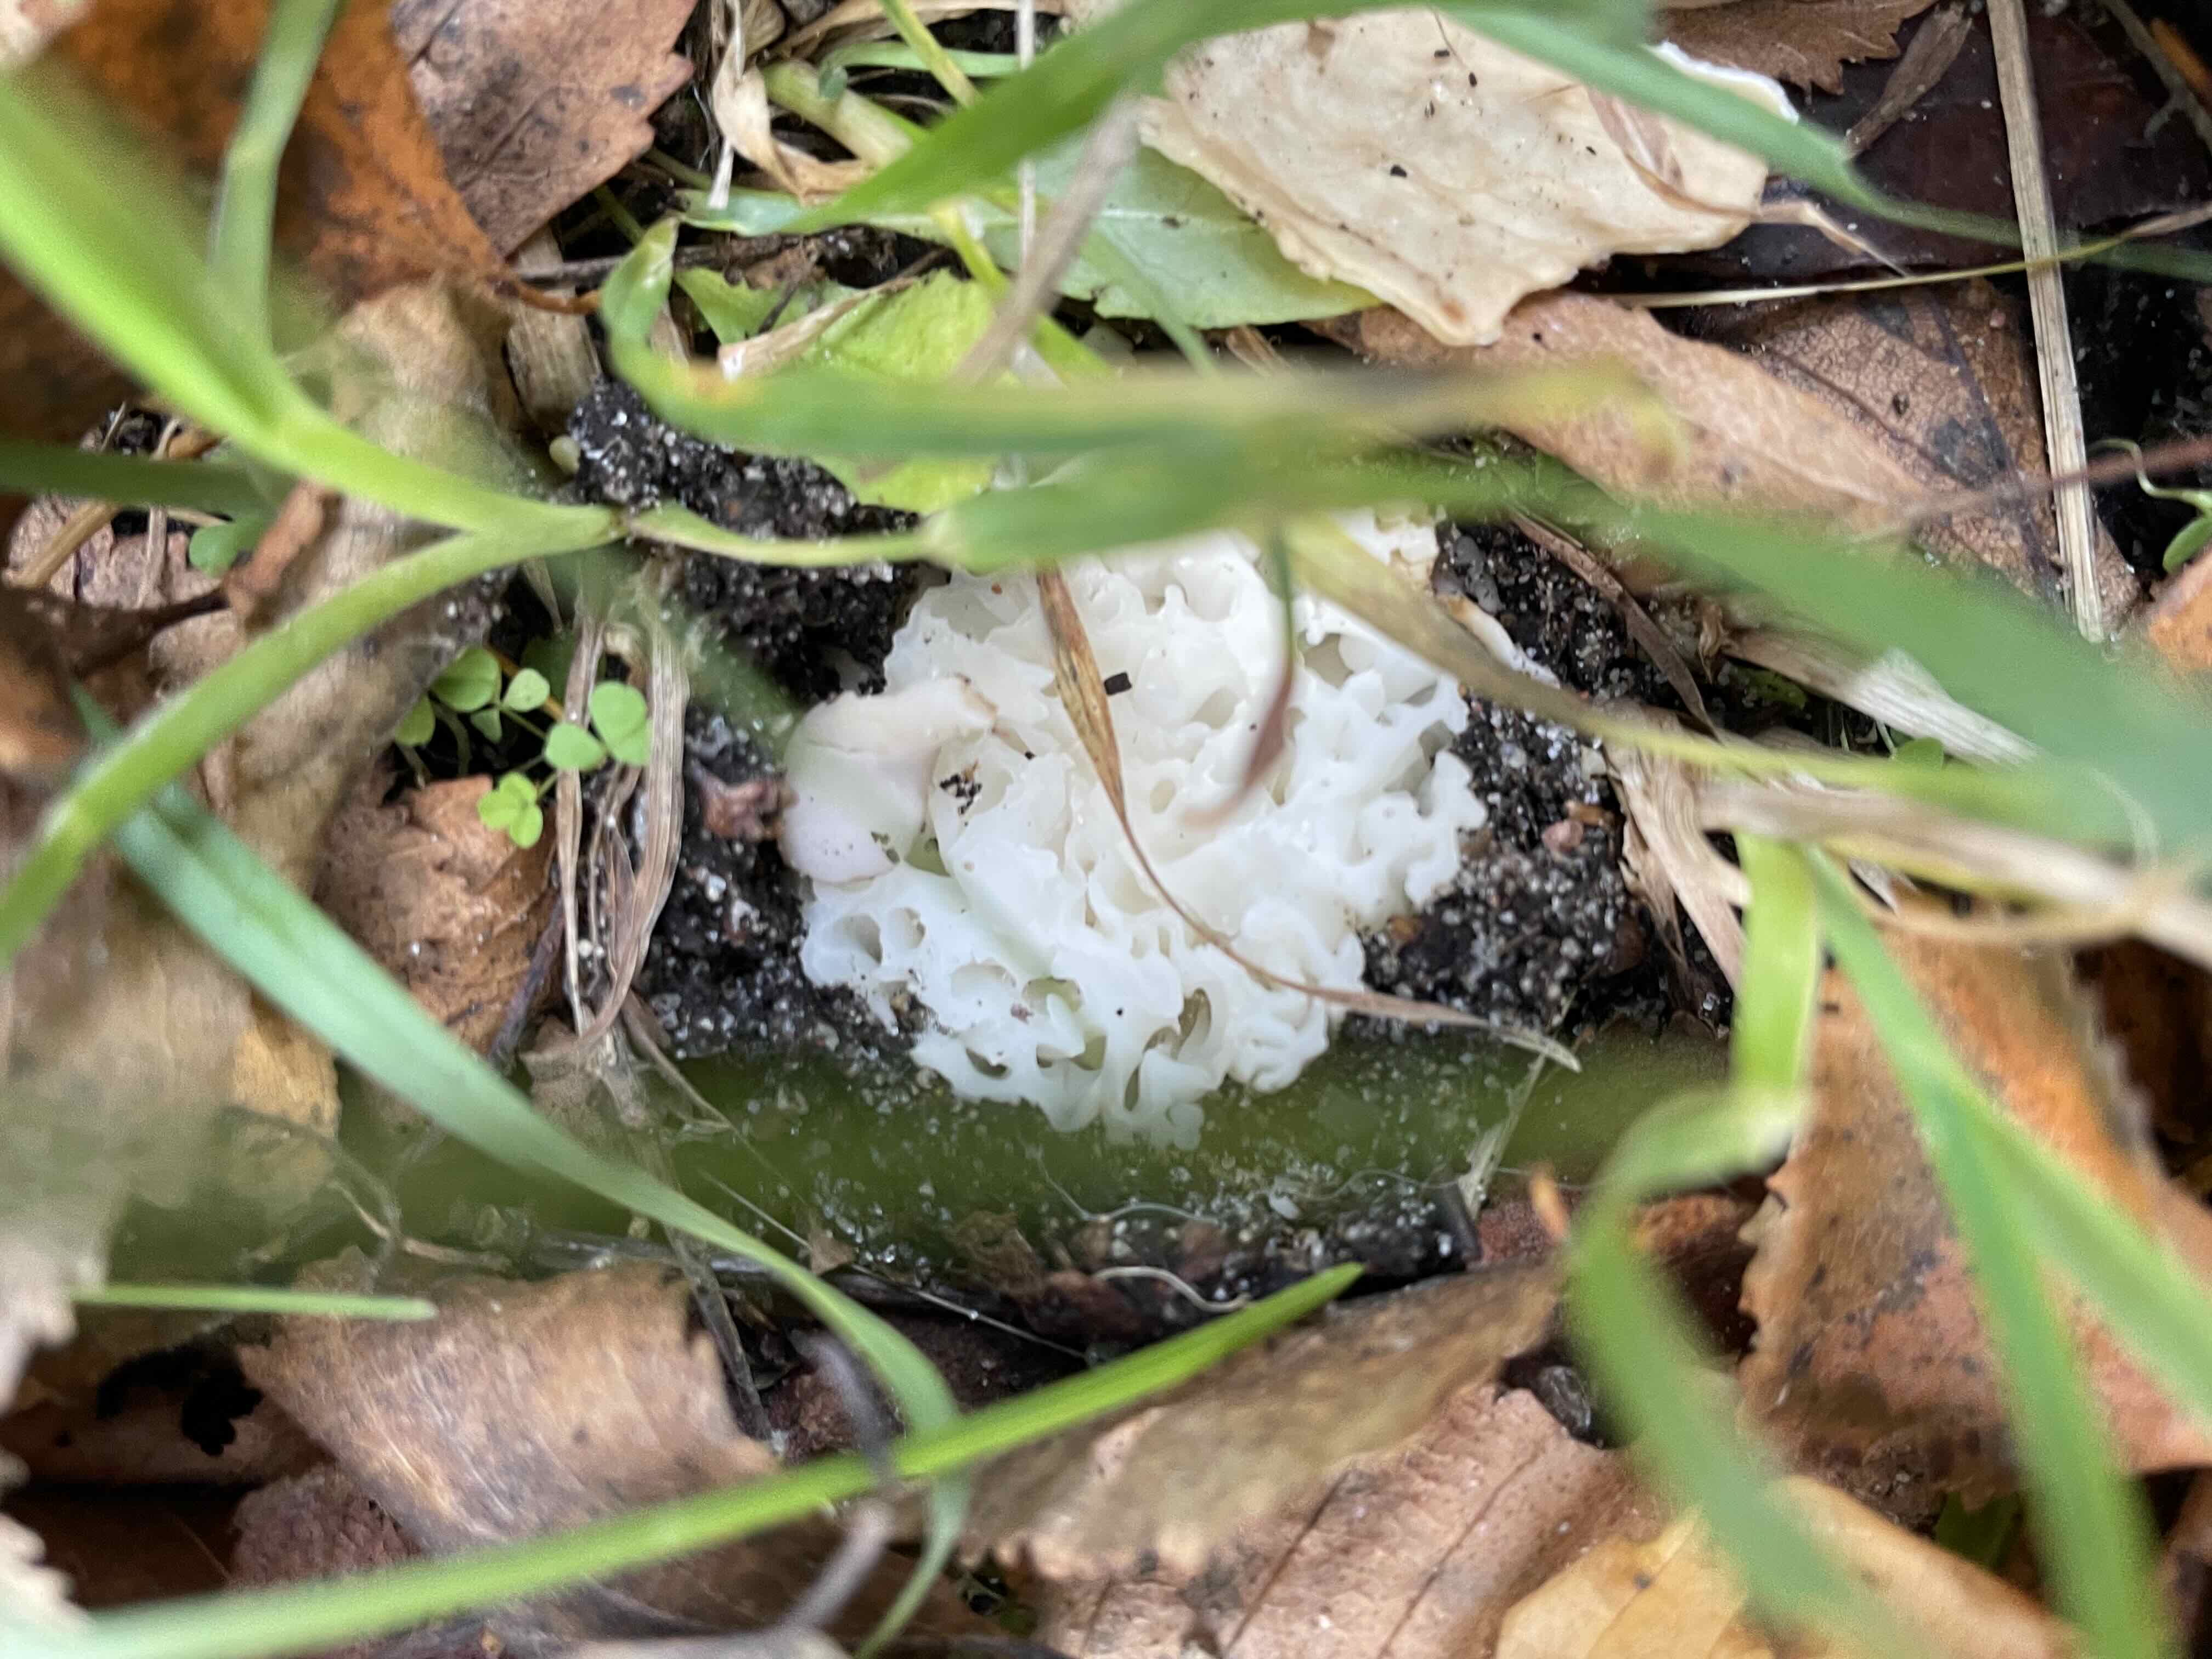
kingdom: Fungi
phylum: Ascomycota
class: Pezizomycetes
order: Pezizales
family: Helvellaceae
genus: Helvella
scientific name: Helvella crispa
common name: kruset foldhat
